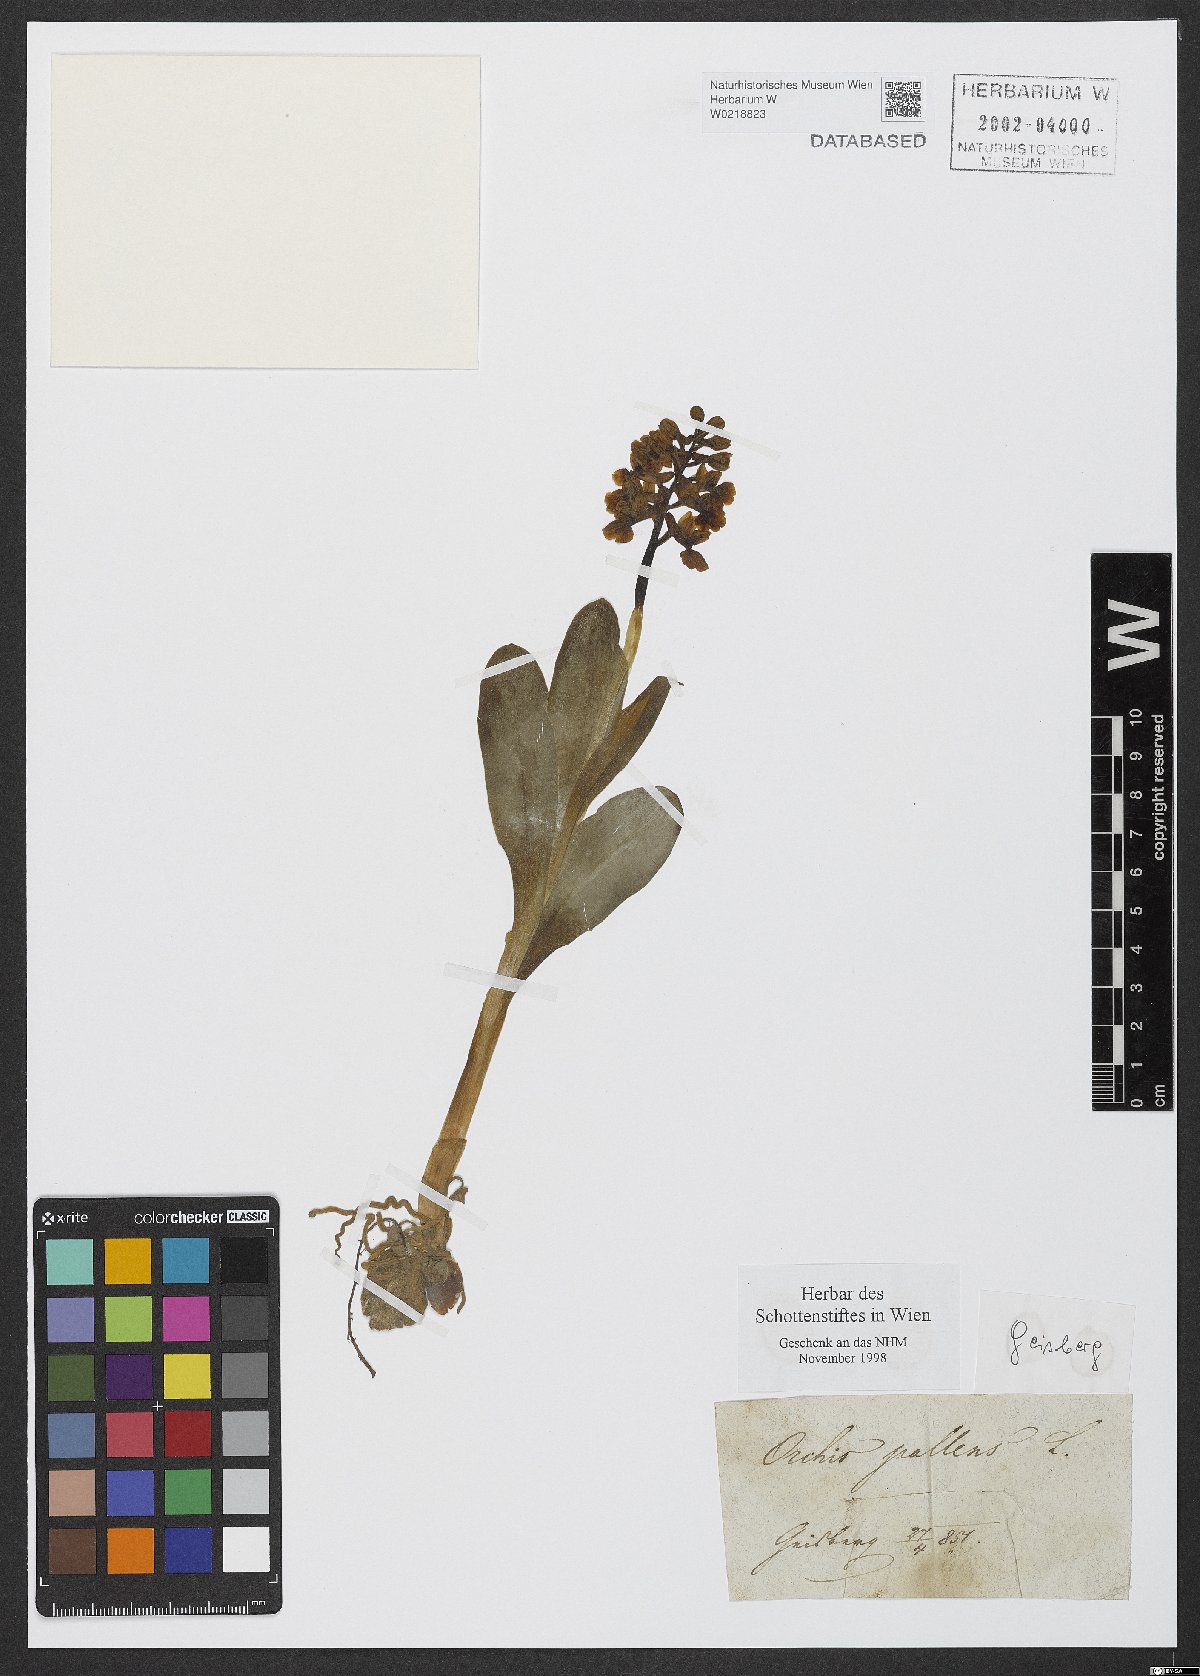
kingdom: Plantae
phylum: Tracheophyta
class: Liliopsida
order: Asparagales
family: Orchidaceae
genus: Orchis
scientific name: Orchis pallens
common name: Pale-flowered orchid
